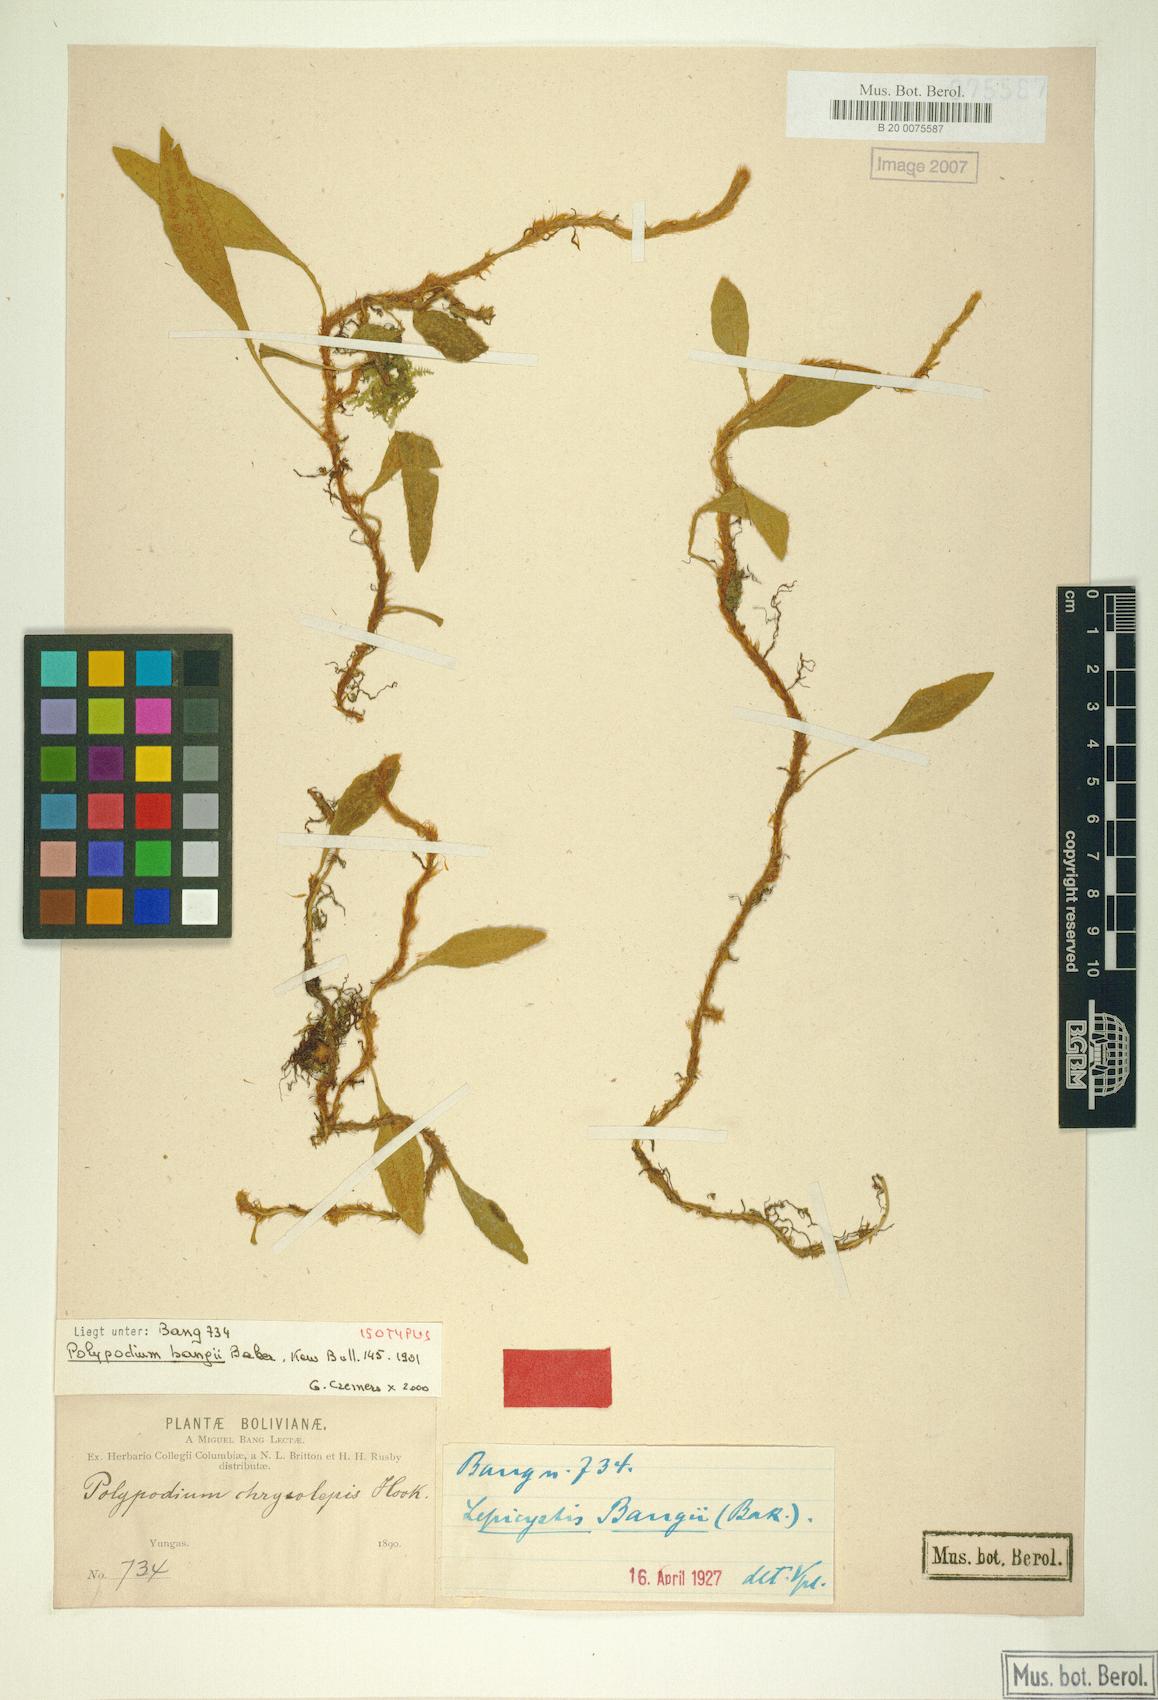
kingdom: Plantae
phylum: Tracheophyta
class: Polypodiopsida
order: Polypodiales
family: Polypodiaceae
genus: Adetogramma
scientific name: Adetogramma chrysolepis
